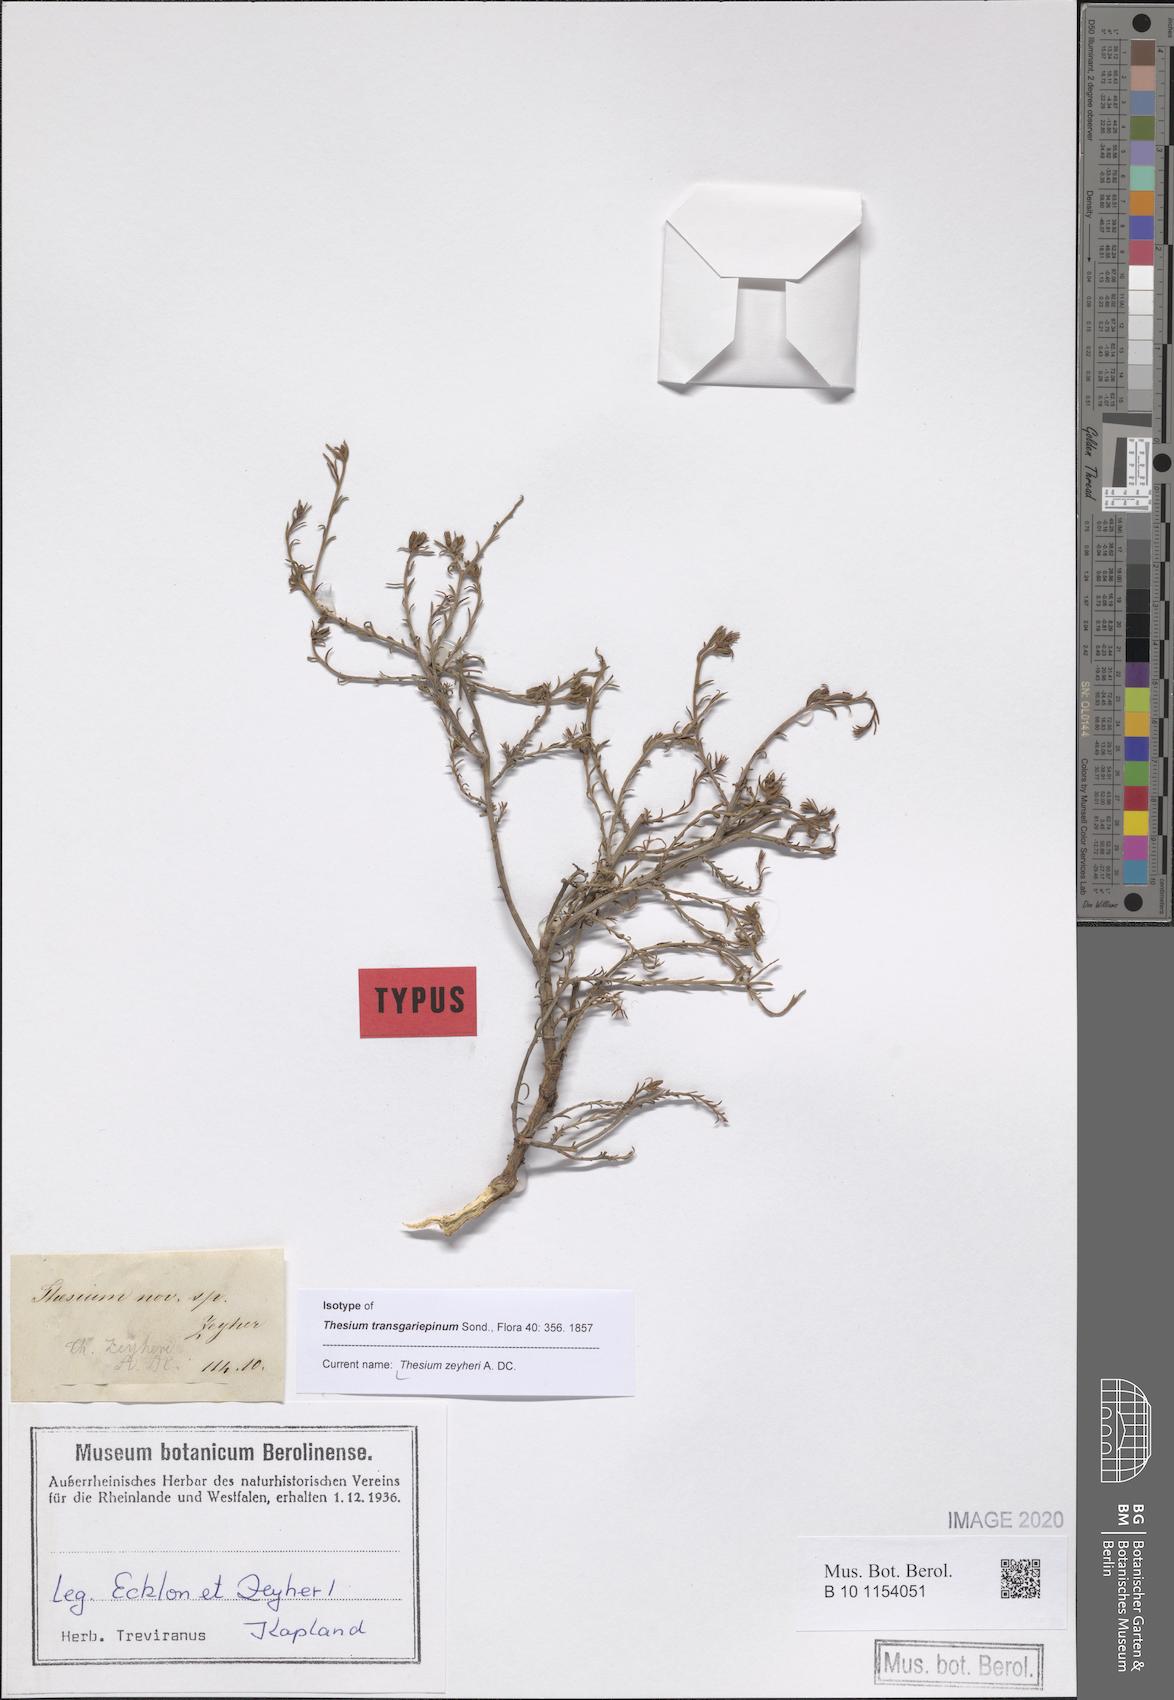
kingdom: Plantae
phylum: Tracheophyta
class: Magnoliopsida
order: Santalales
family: Thesiaceae
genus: Thesium
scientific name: Thesium zeyheri
